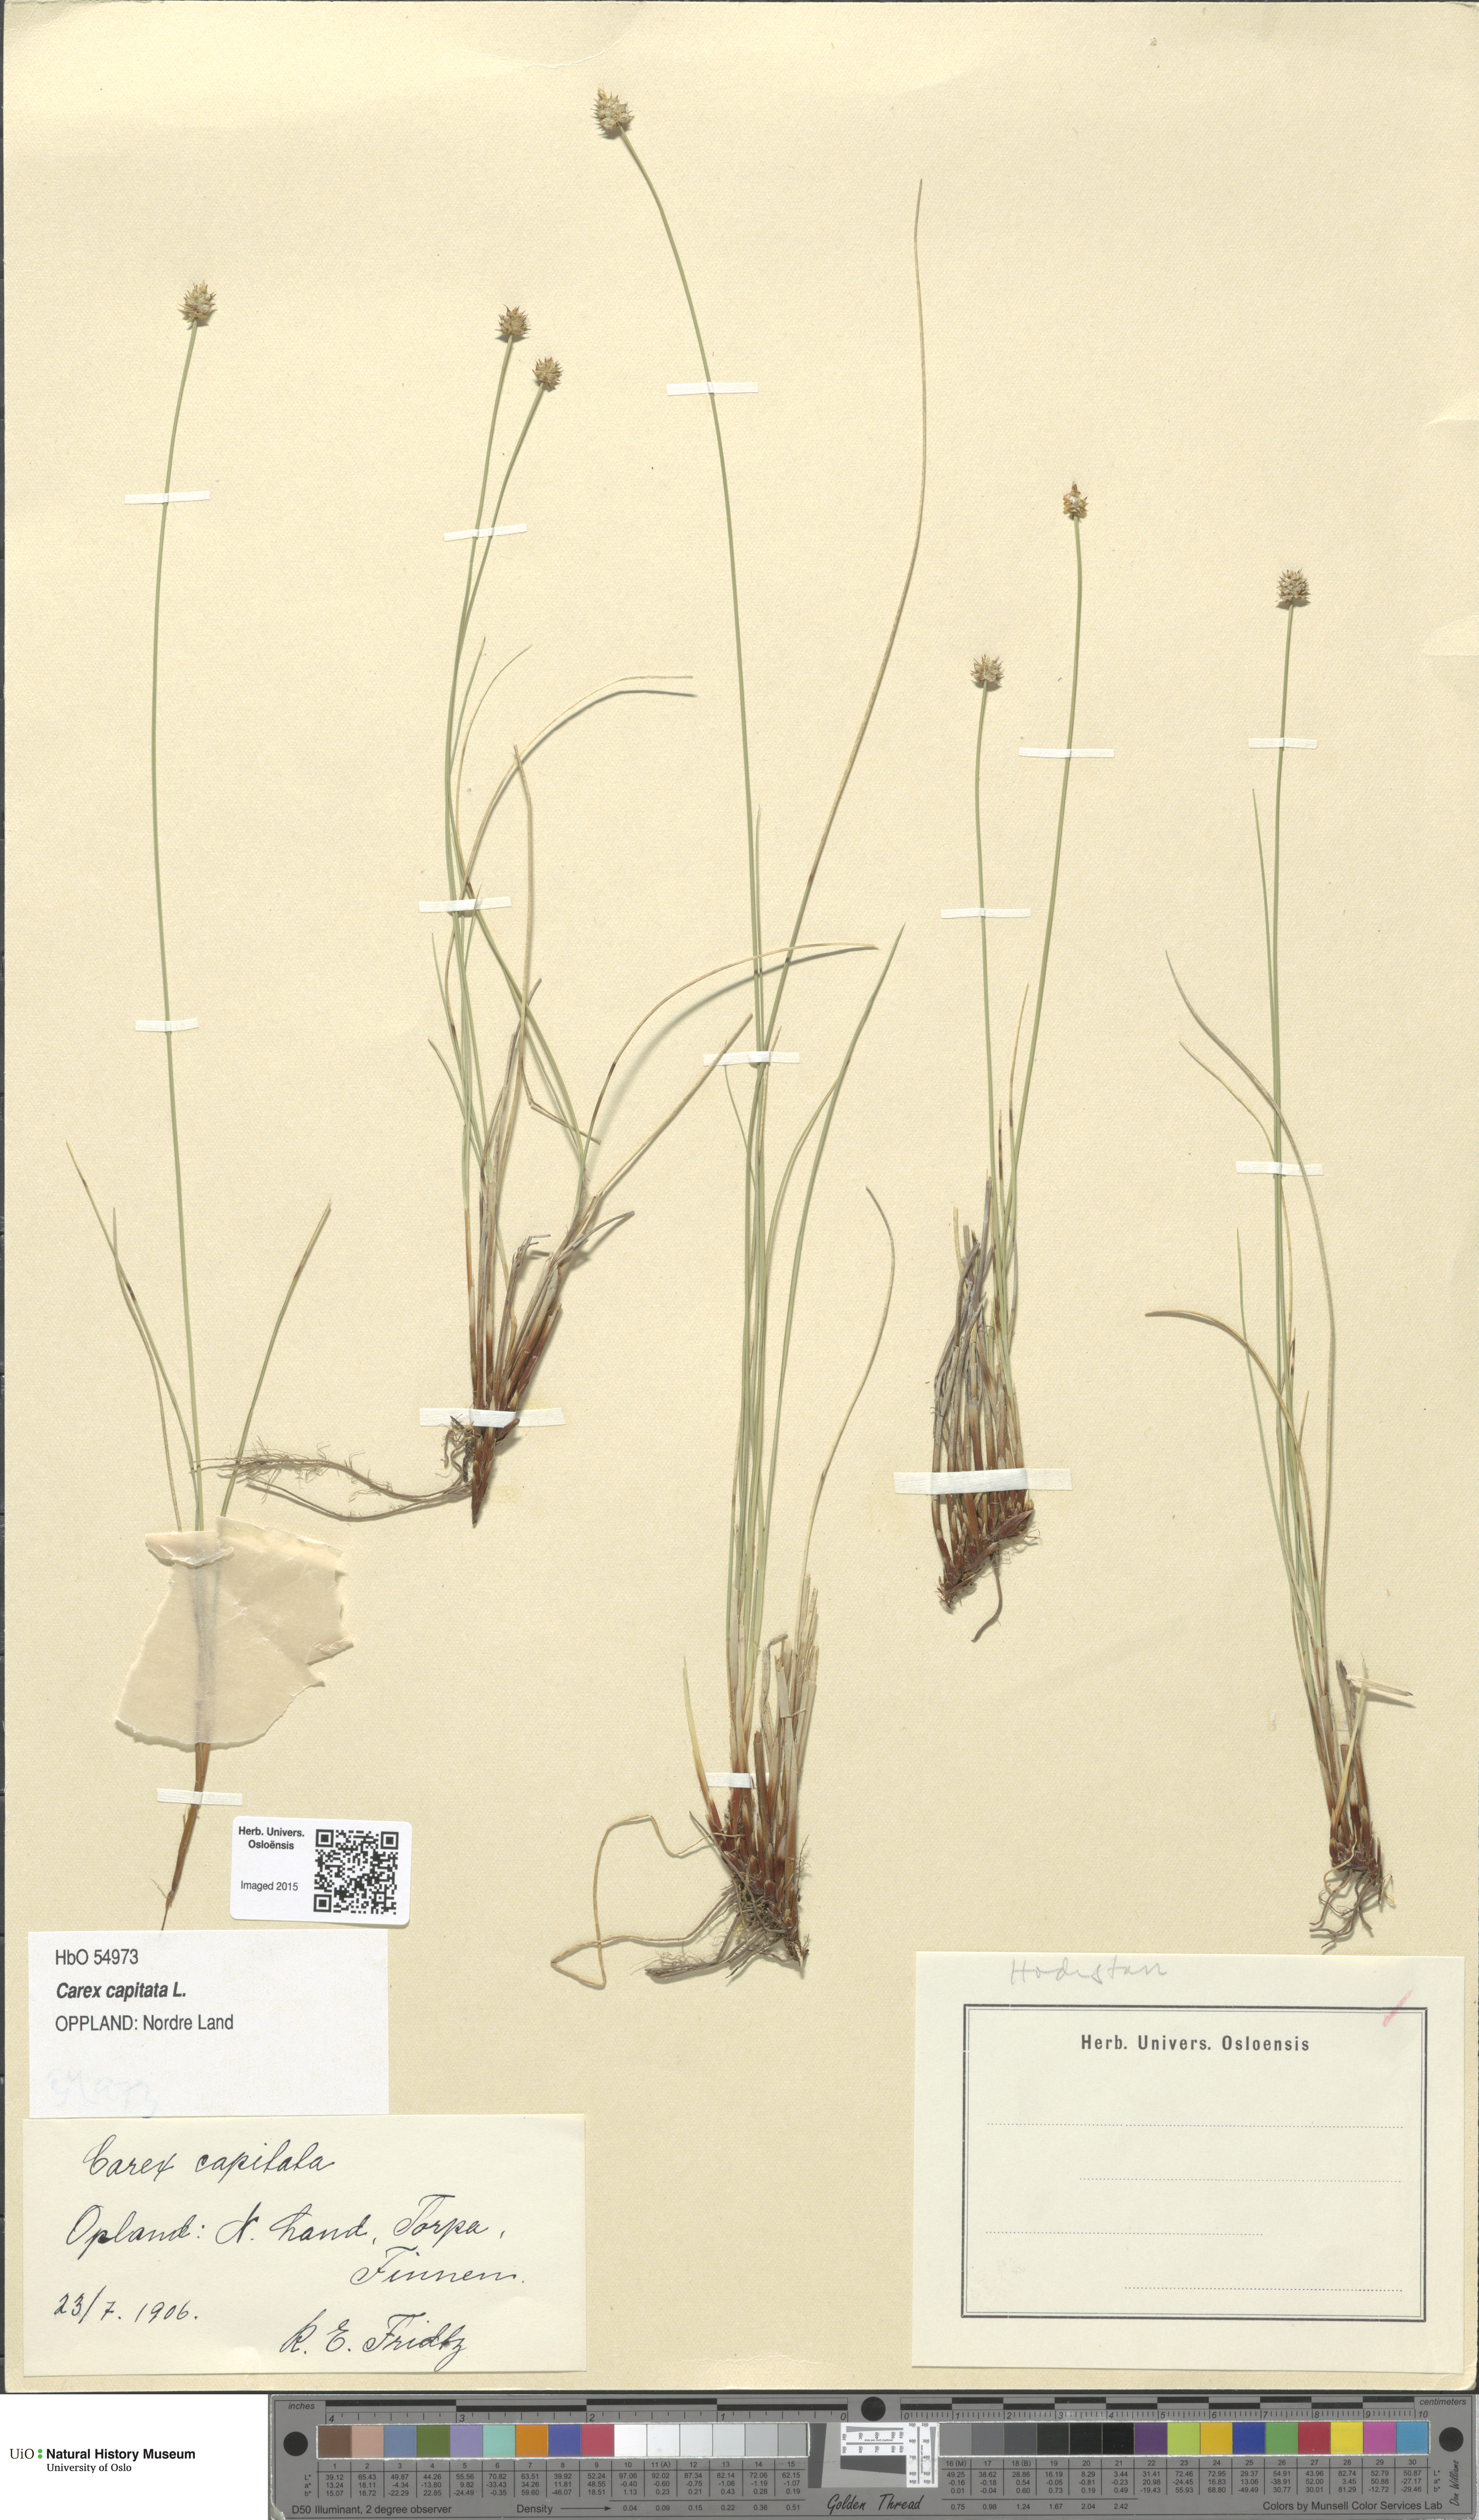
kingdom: Plantae
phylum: Tracheophyta
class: Liliopsida
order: Poales
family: Cyperaceae
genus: Carex
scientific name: Carex capitata
